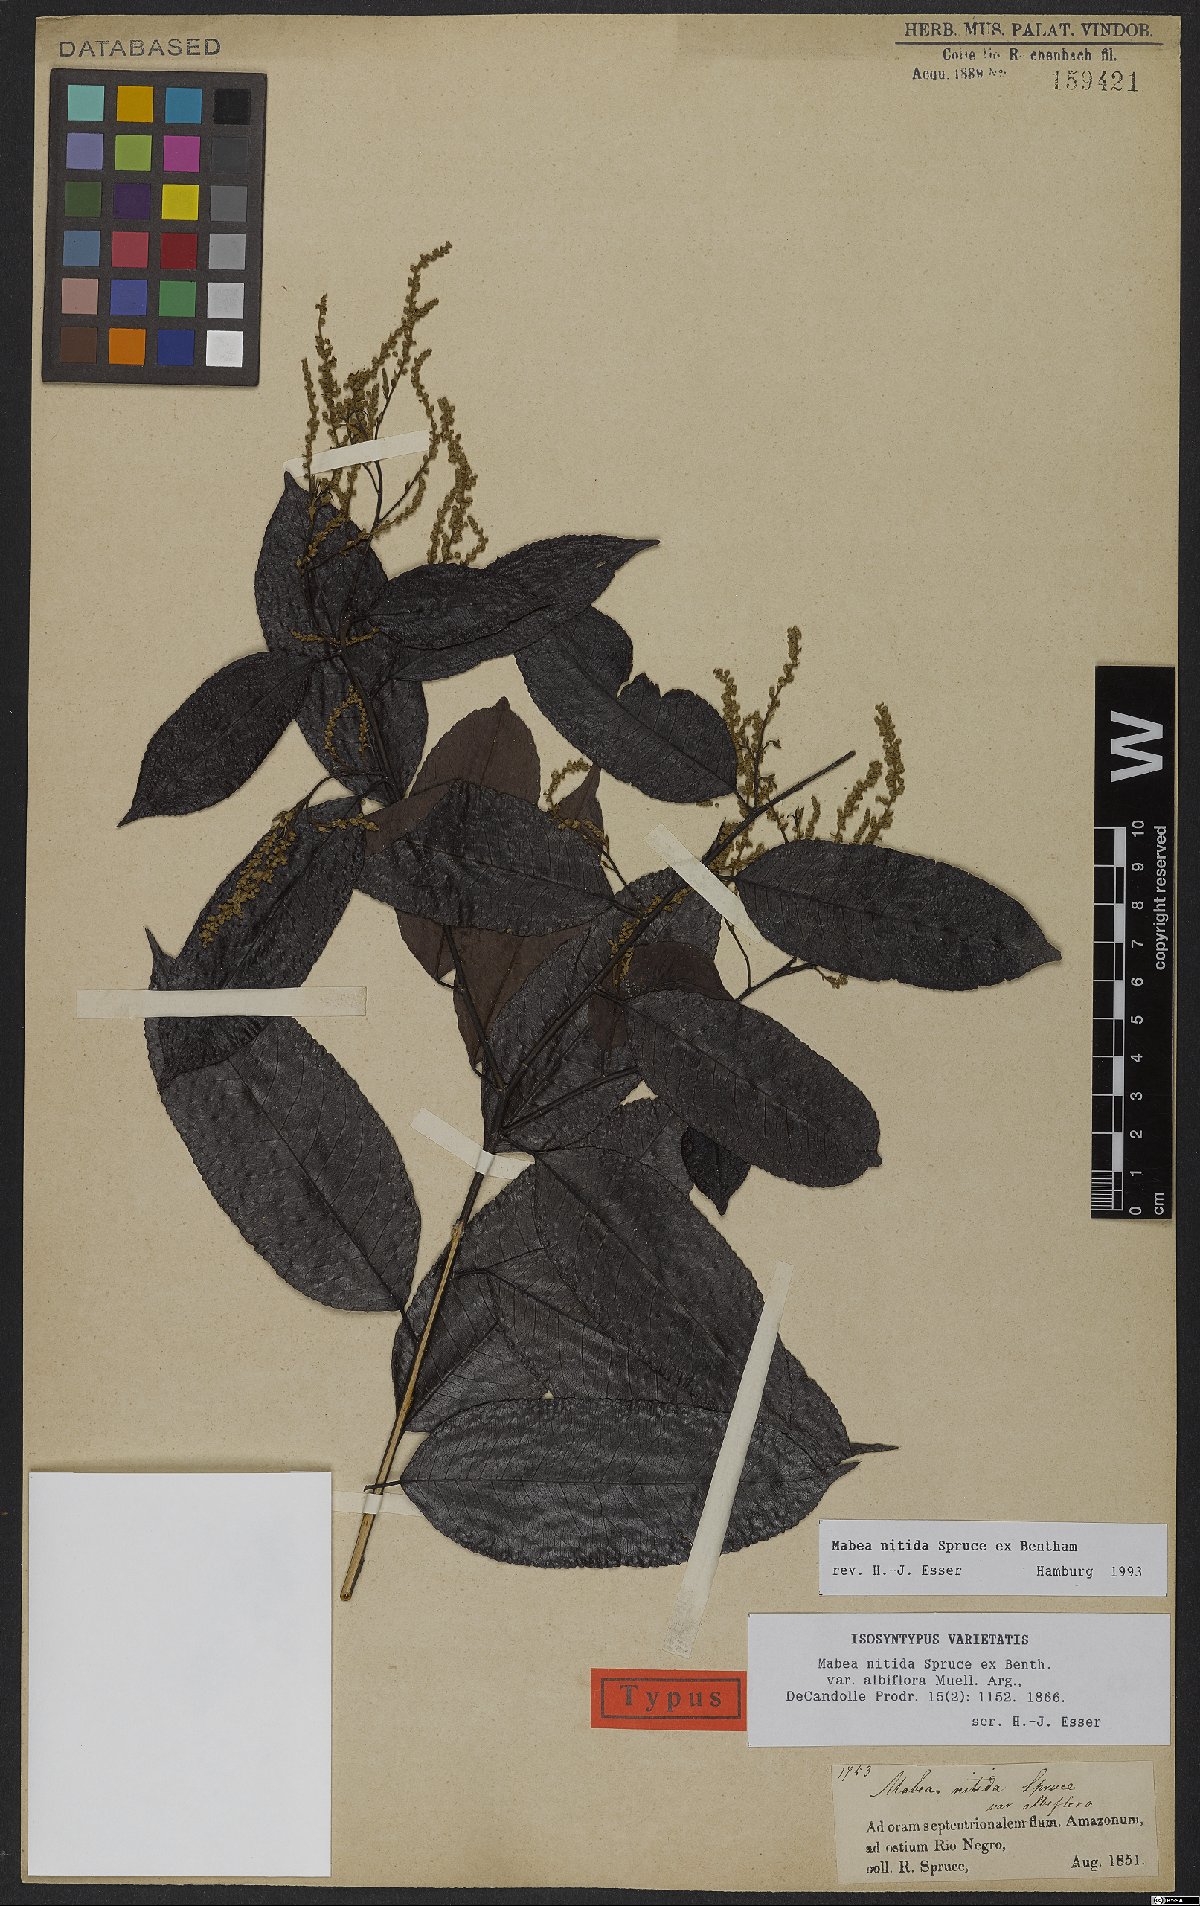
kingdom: Plantae
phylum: Tracheophyta
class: Magnoliopsida
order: Malpighiales
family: Euphorbiaceae
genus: Mabea
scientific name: Mabea nitida
